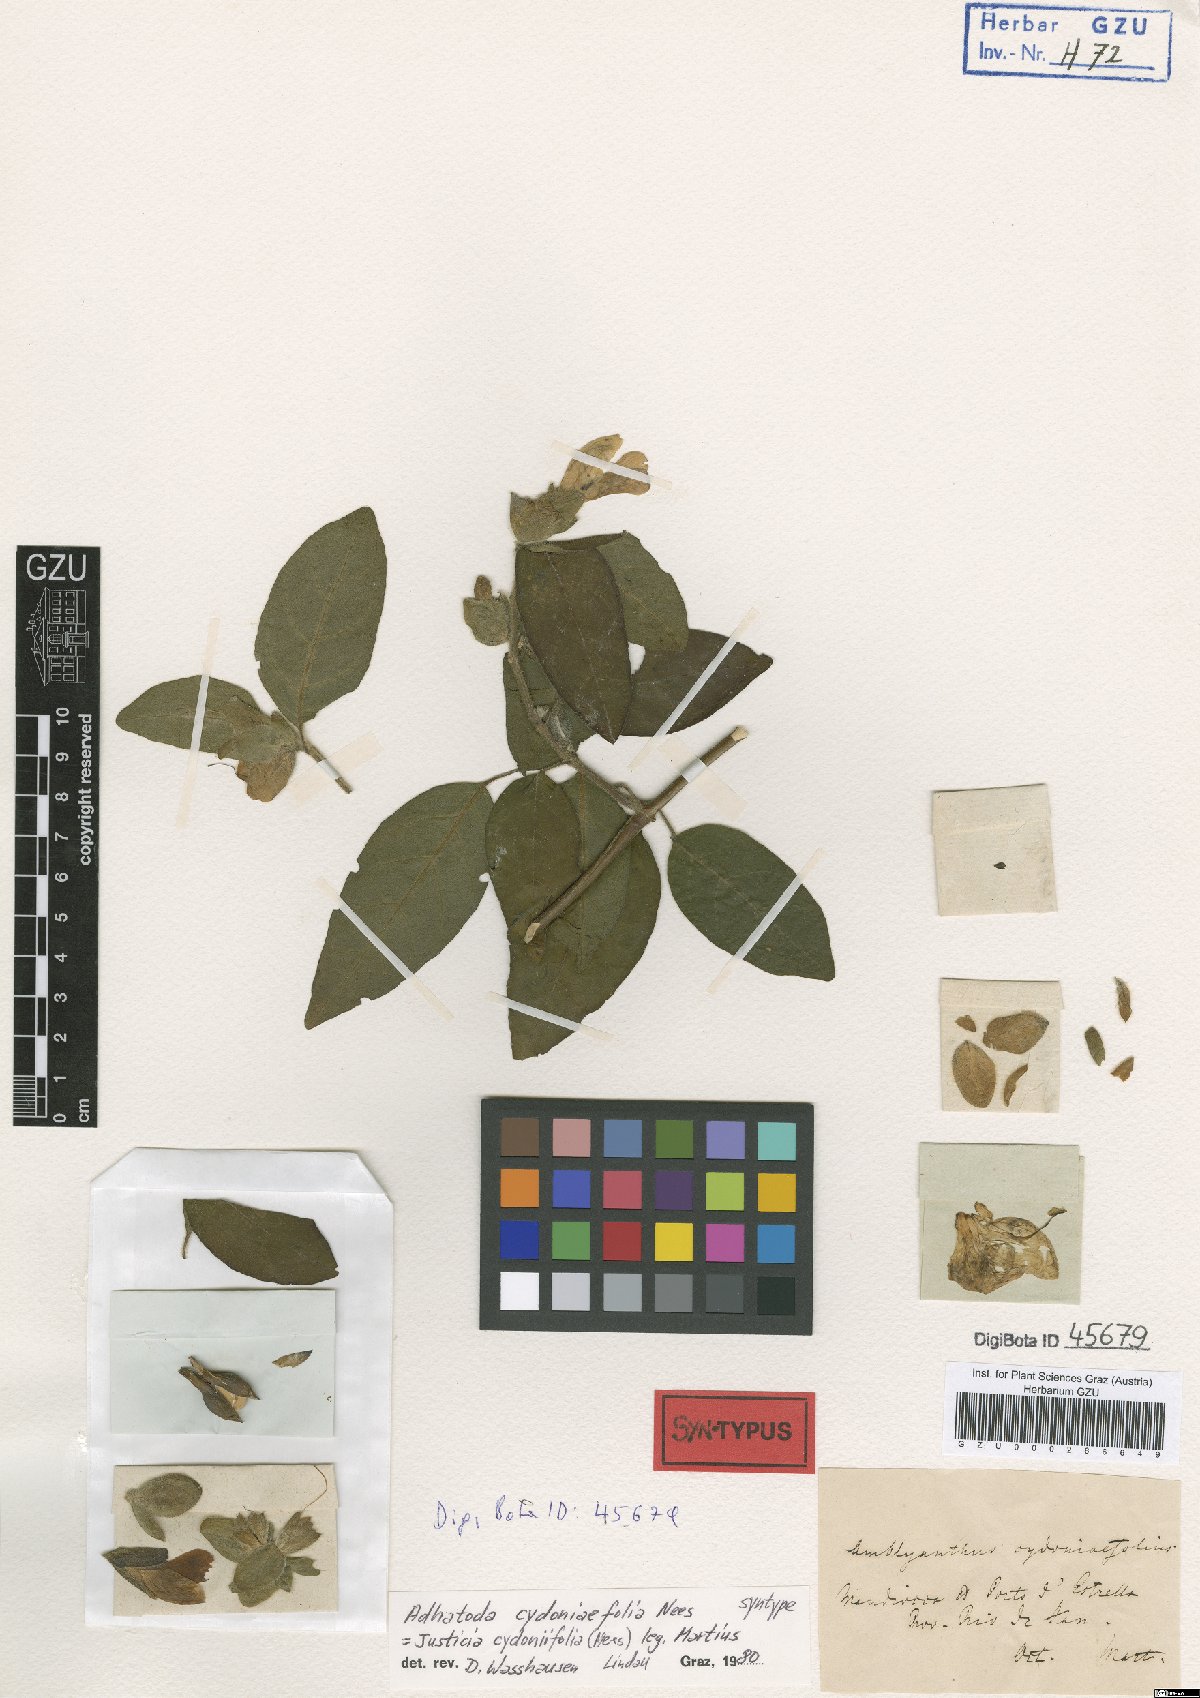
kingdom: Plantae
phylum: Tracheophyta
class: Magnoliopsida
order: Lamiales
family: Acanthaceae
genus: Justicia
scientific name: Justicia cydoniifolia
